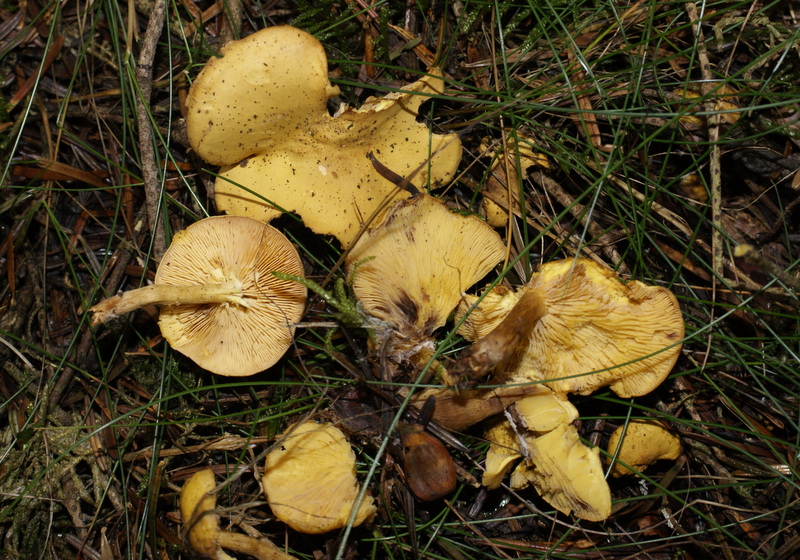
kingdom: Fungi
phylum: Basidiomycota
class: Agaricomycetes
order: Agaricales
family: Lyophyllaceae
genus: Calocybe
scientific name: Calocybe chrysenteron
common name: brandgul fagerhat
